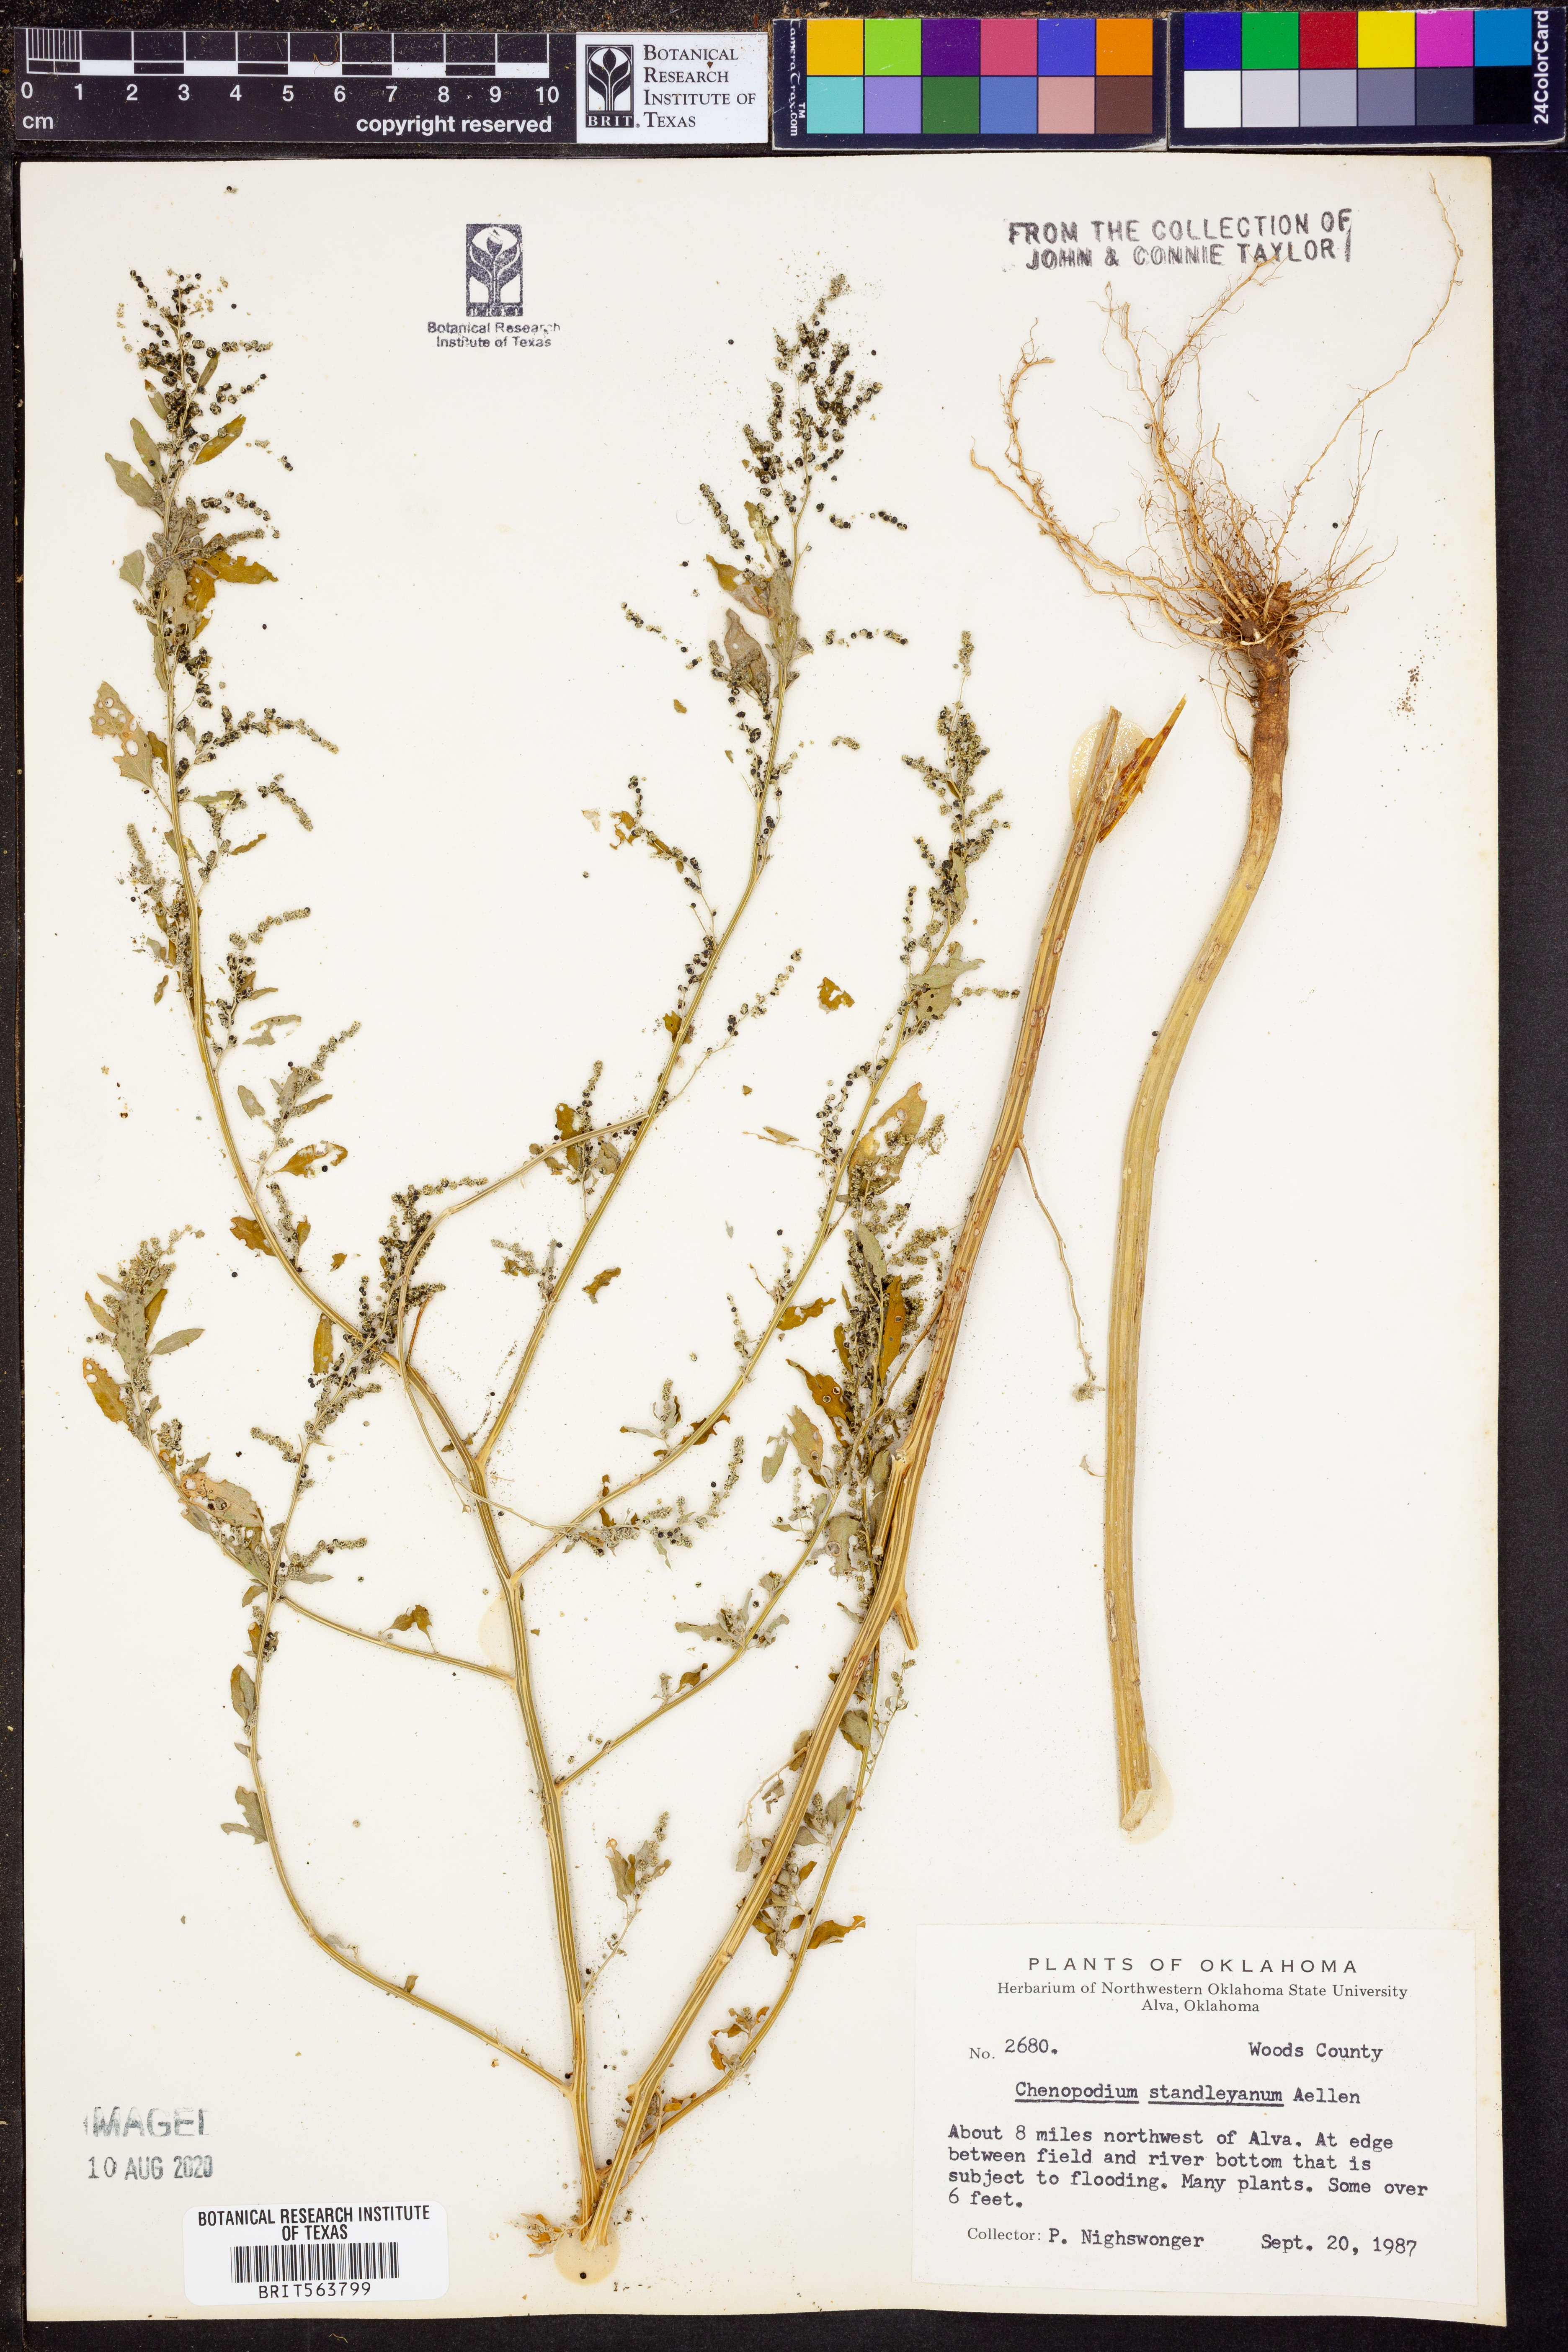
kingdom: Plantae
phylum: Tracheophyta
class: Magnoliopsida
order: Caryophyllales
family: Amaranthaceae
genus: Chenopodiastrum
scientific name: Chenopodiastrum standleyanum
